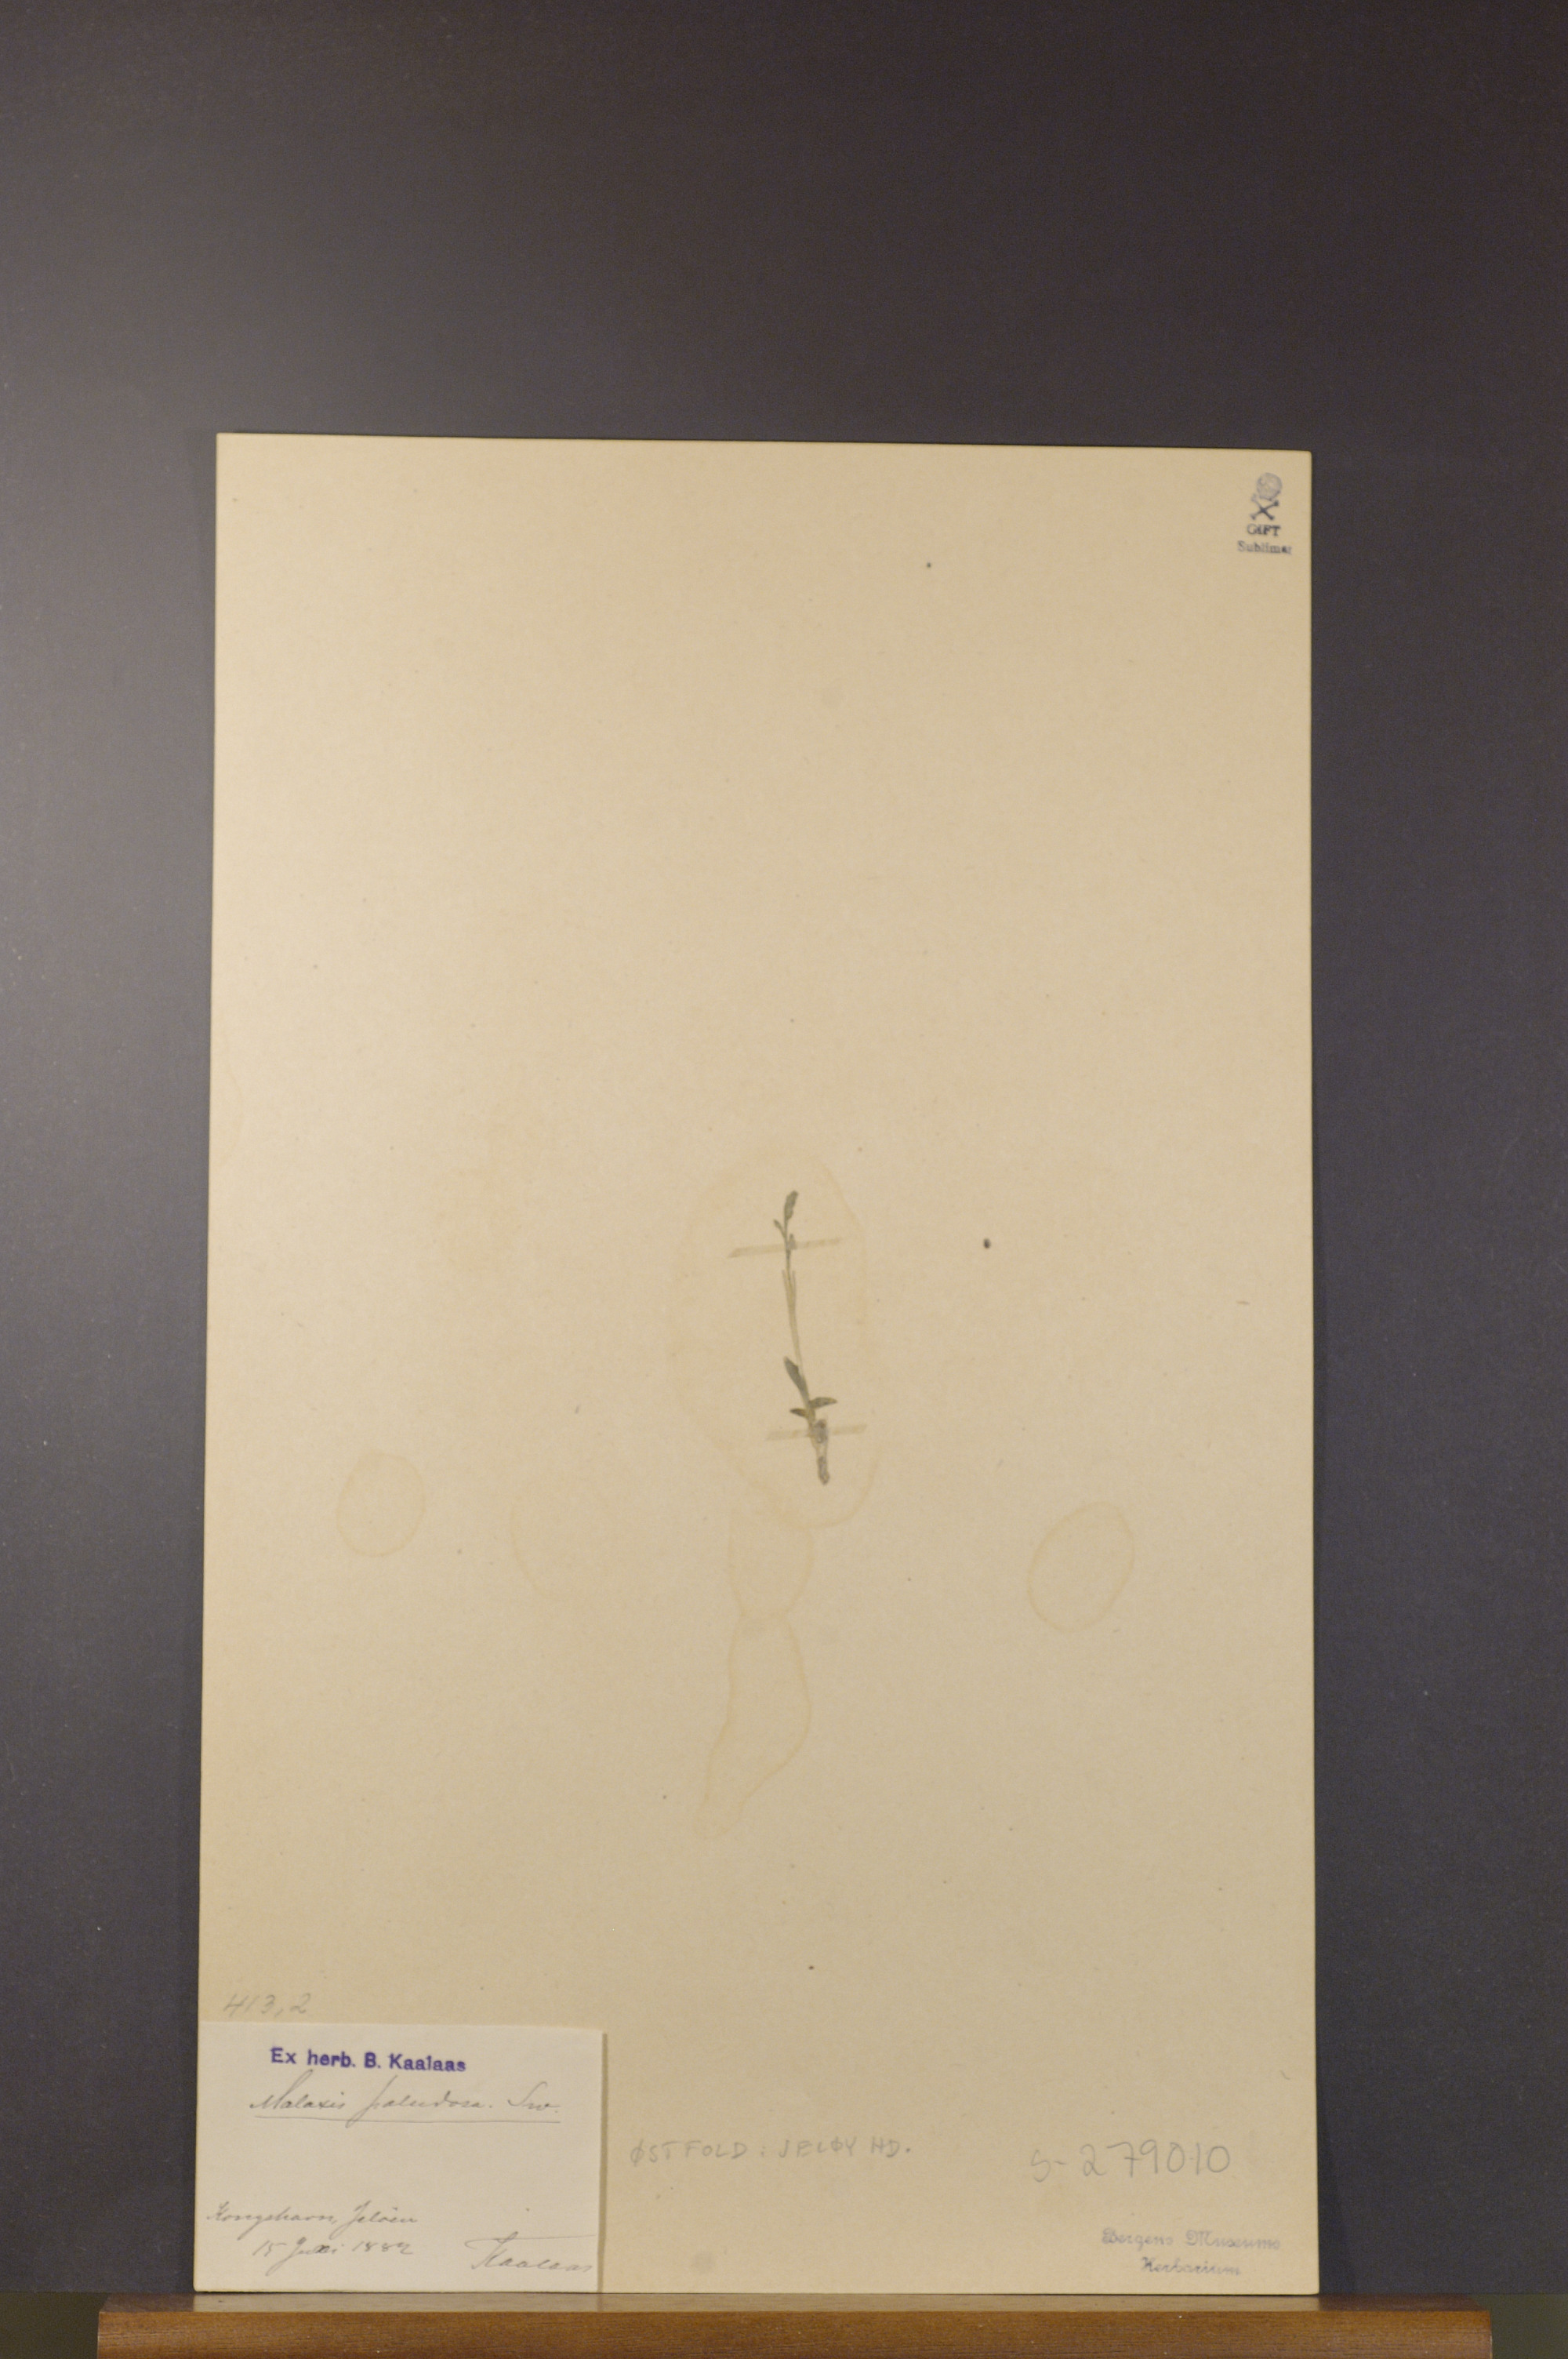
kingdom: Plantae
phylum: Tracheophyta
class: Liliopsida
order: Asparagales
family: Orchidaceae
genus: Hammarbya
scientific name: Hammarbya paludosa
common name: Bog orchid
